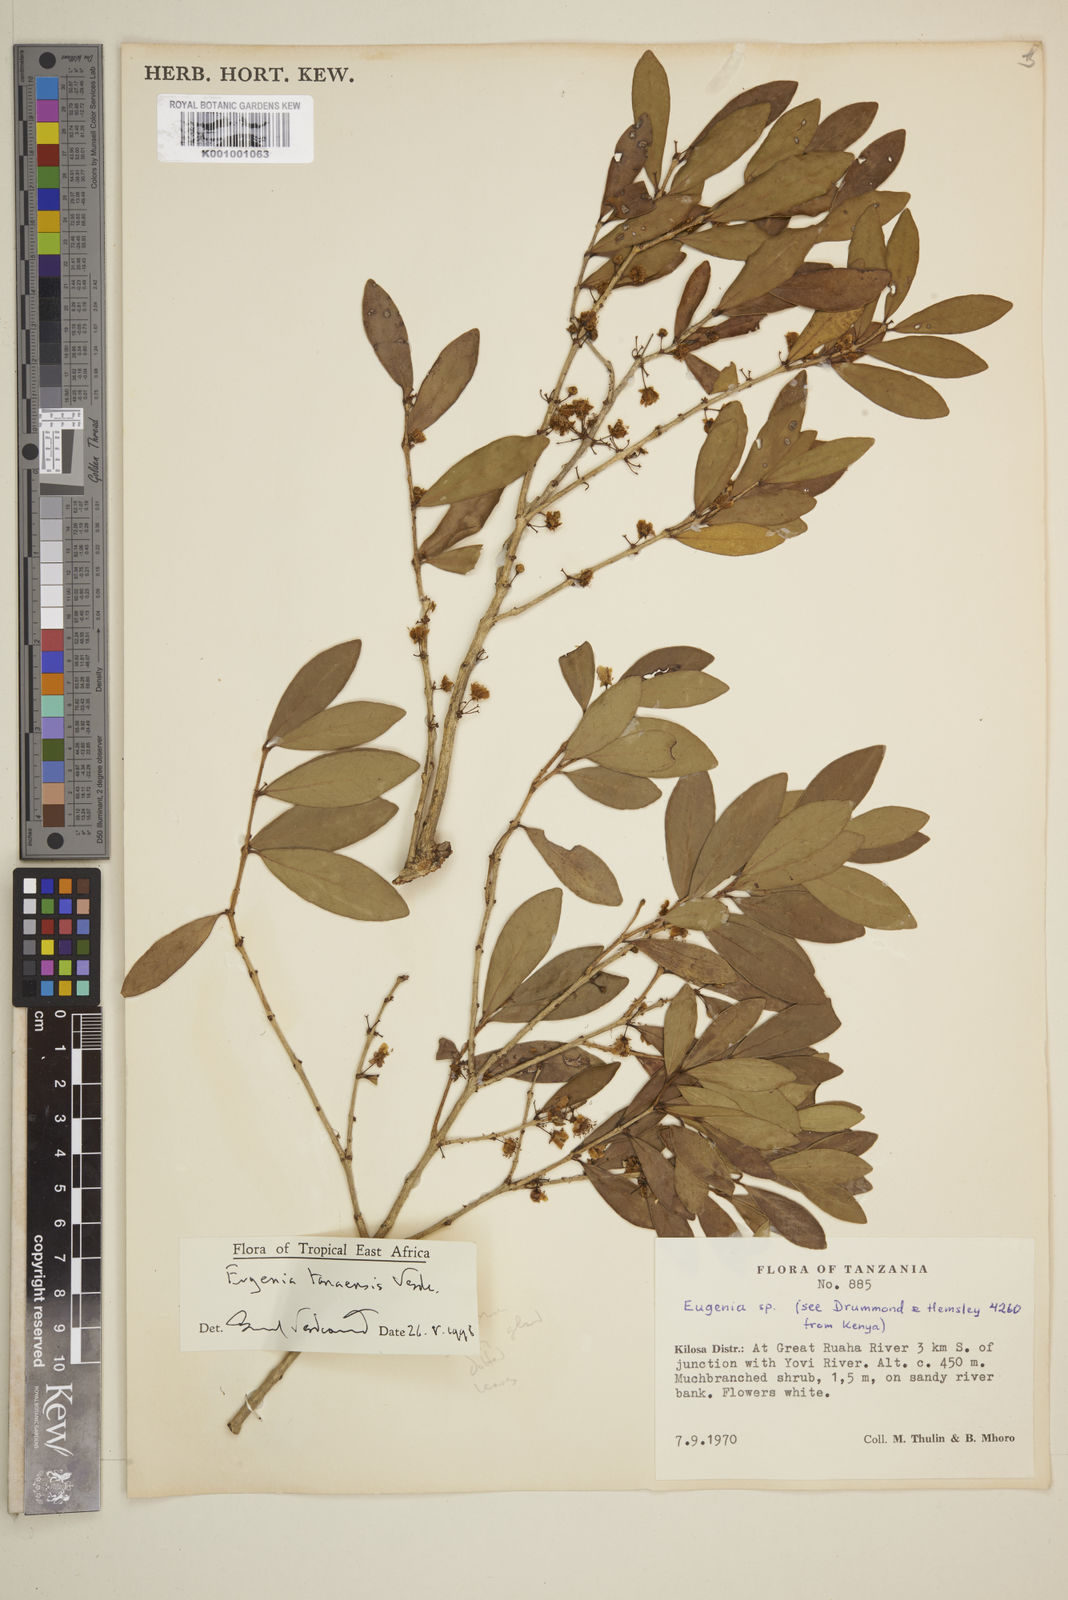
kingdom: Plantae
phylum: Tracheophyta
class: Magnoliopsida
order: Myrtales
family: Myrtaceae
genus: Eugenia
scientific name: Eugenia tanaensis
